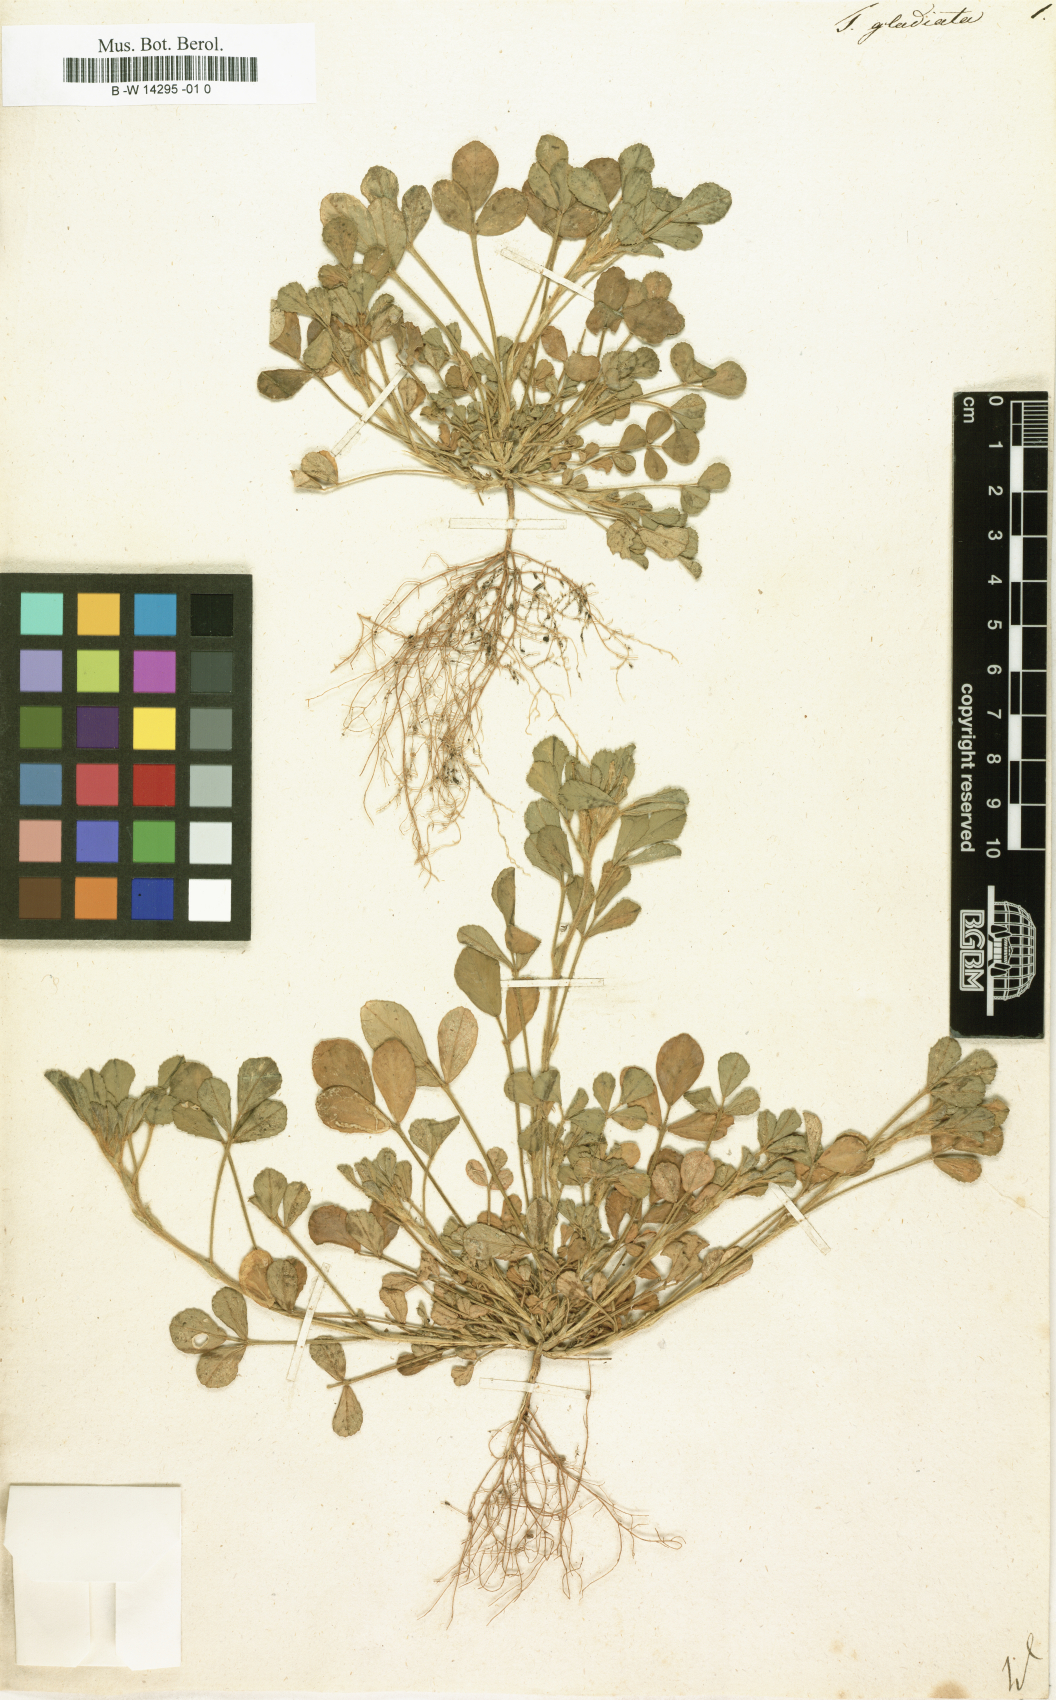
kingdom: Plantae
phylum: Tracheophyta
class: Magnoliopsida
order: Fabales
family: Fabaceae
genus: Trigonella
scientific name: Trigonella gladiata
